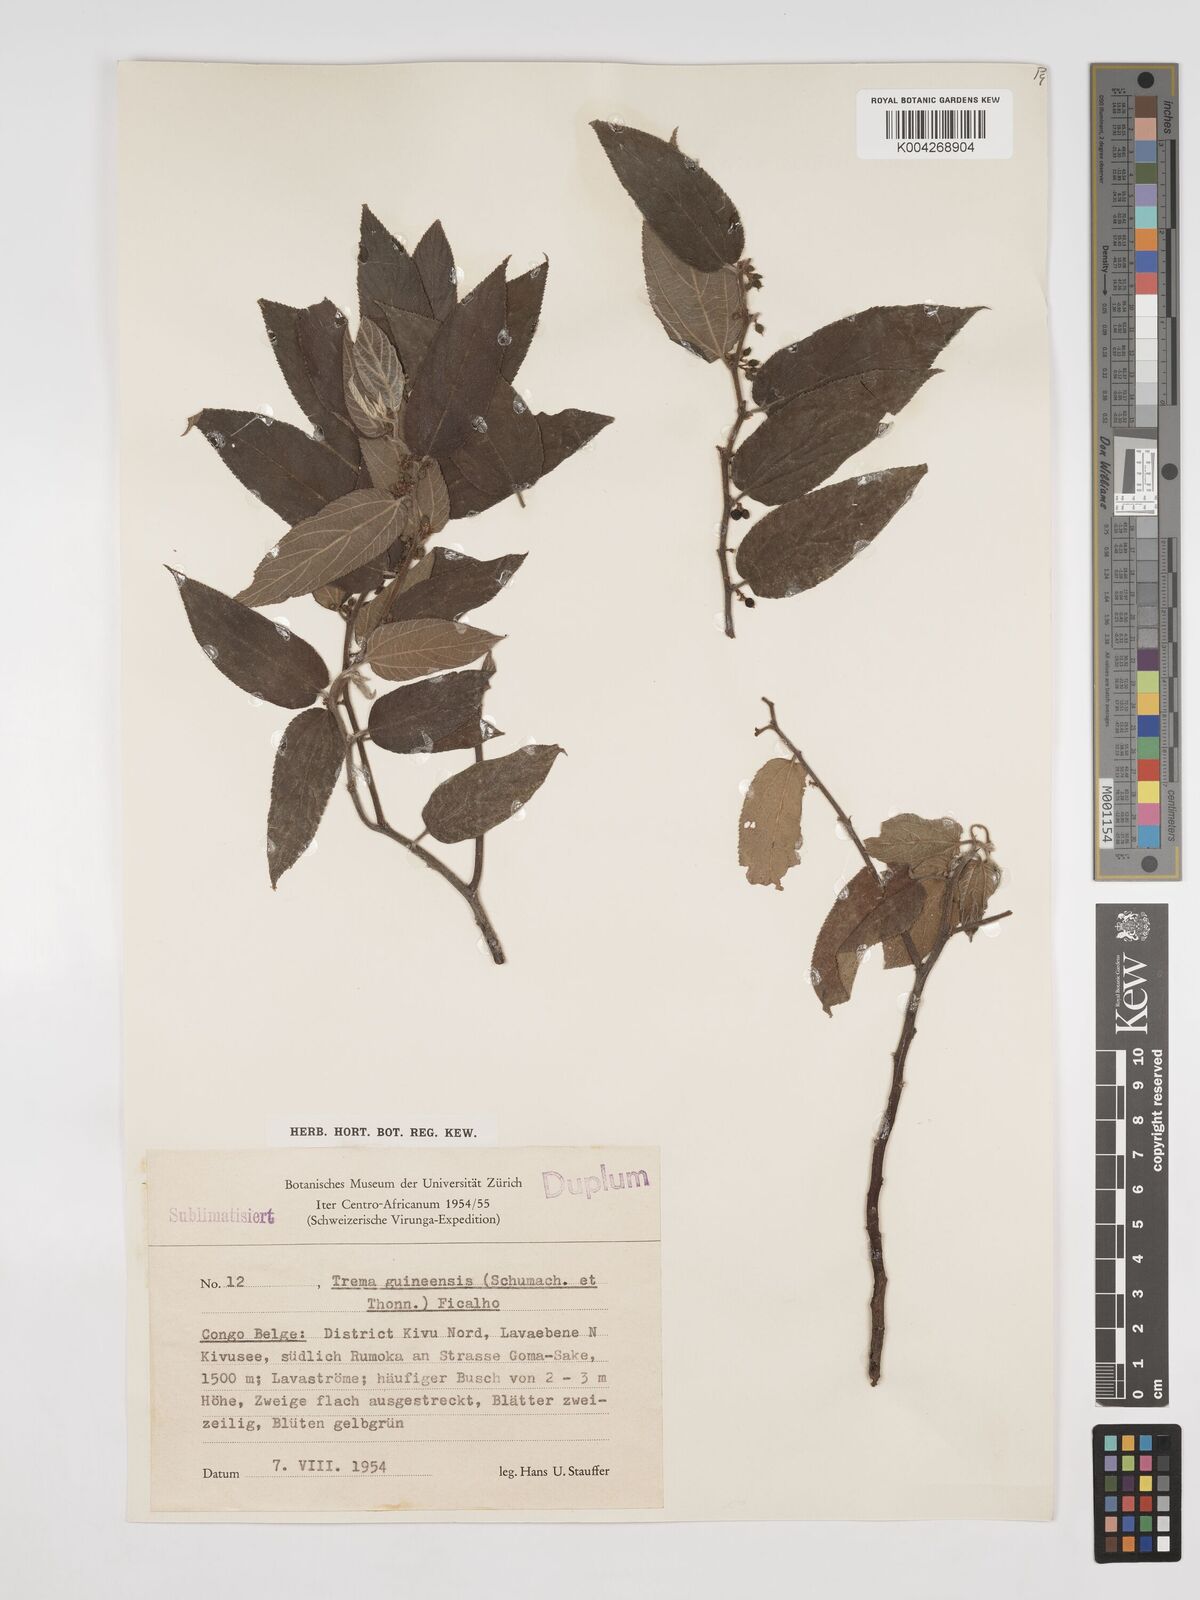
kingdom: Plantae
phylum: Tracheophyta
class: Magnoliopsida
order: Rosales
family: Cannabaceae
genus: Trema
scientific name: Trema orientale
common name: Indian charcoal tree
